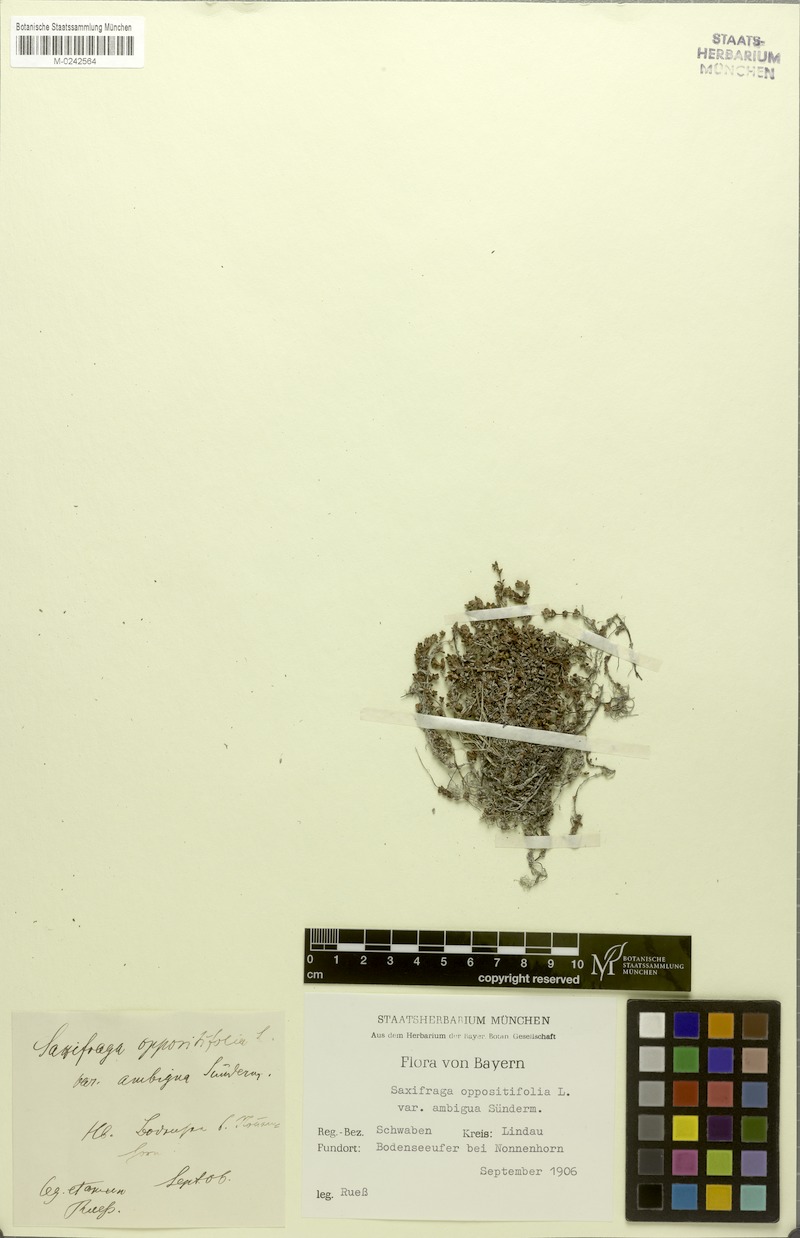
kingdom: Plantae
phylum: Tracheophyta
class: Magnoliopsida
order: Saxifragales
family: Saxifragaceae
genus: Saxifraga
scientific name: Saxifraga oppositifolia
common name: Purple saxifrage
